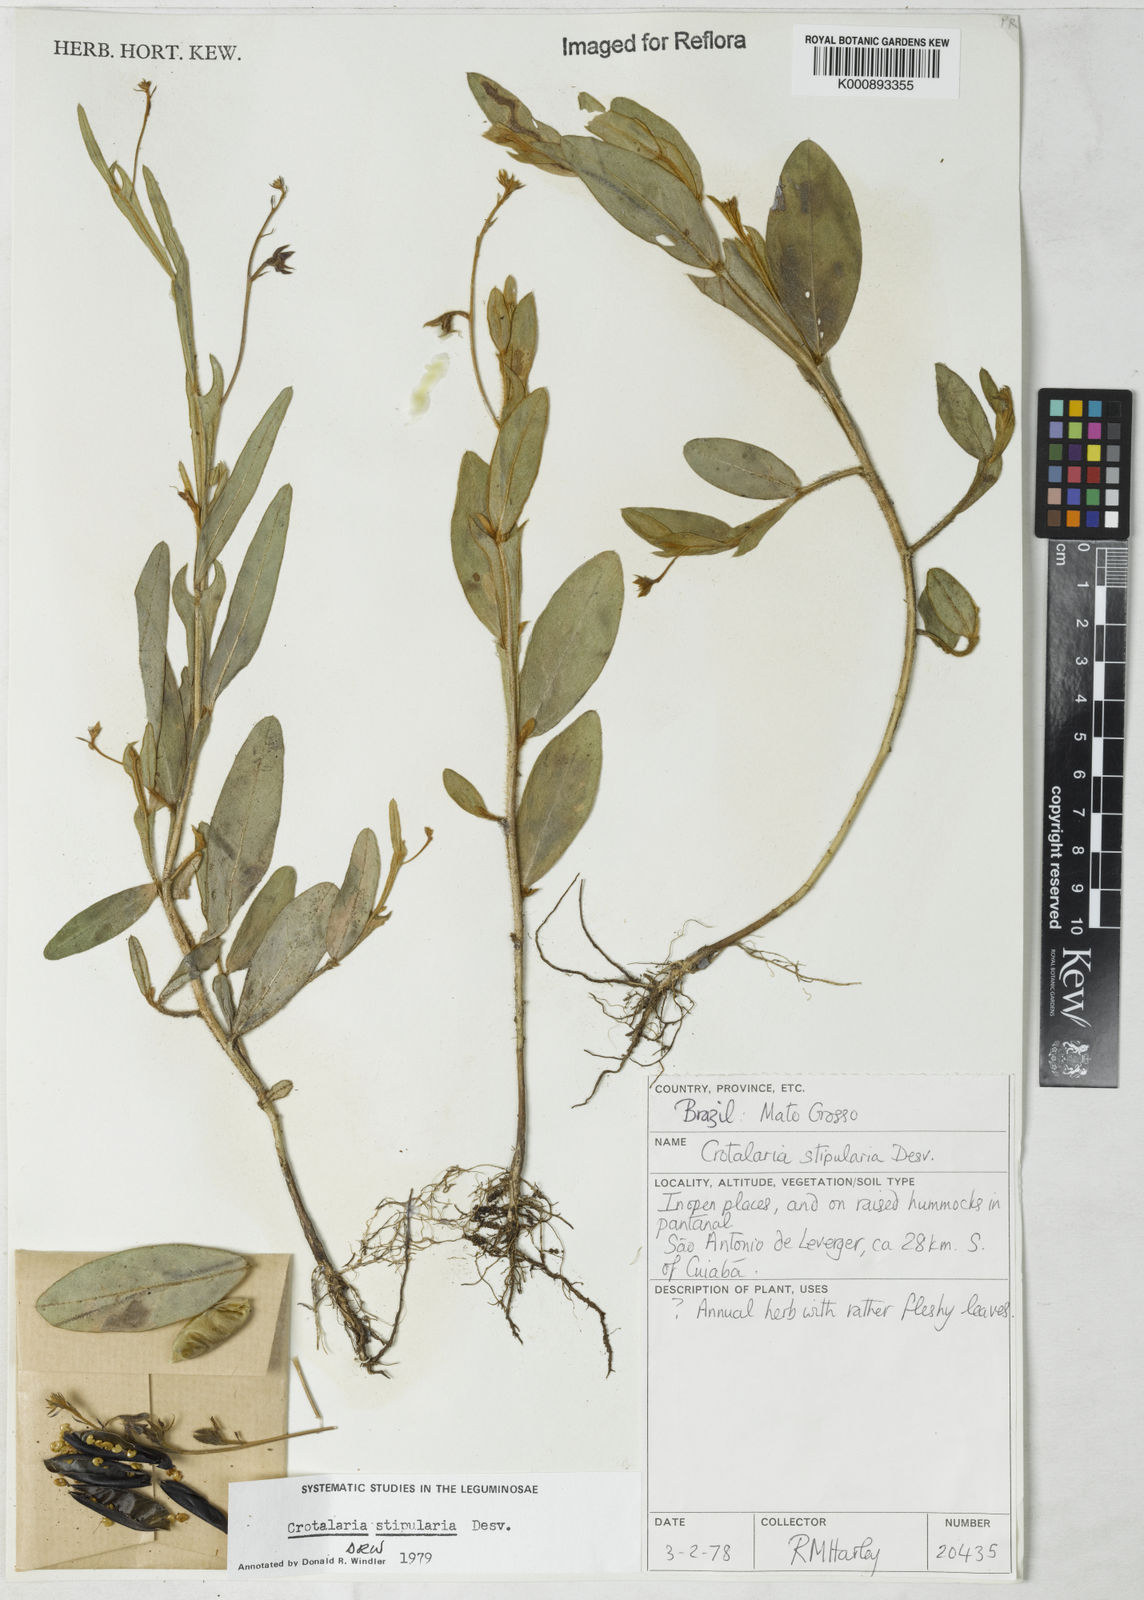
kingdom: Plantae
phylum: Tracheophyta
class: Magnoliopsida
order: Fabales
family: Fabaceae
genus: Crotalaria
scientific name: Crotalaria stipularia
